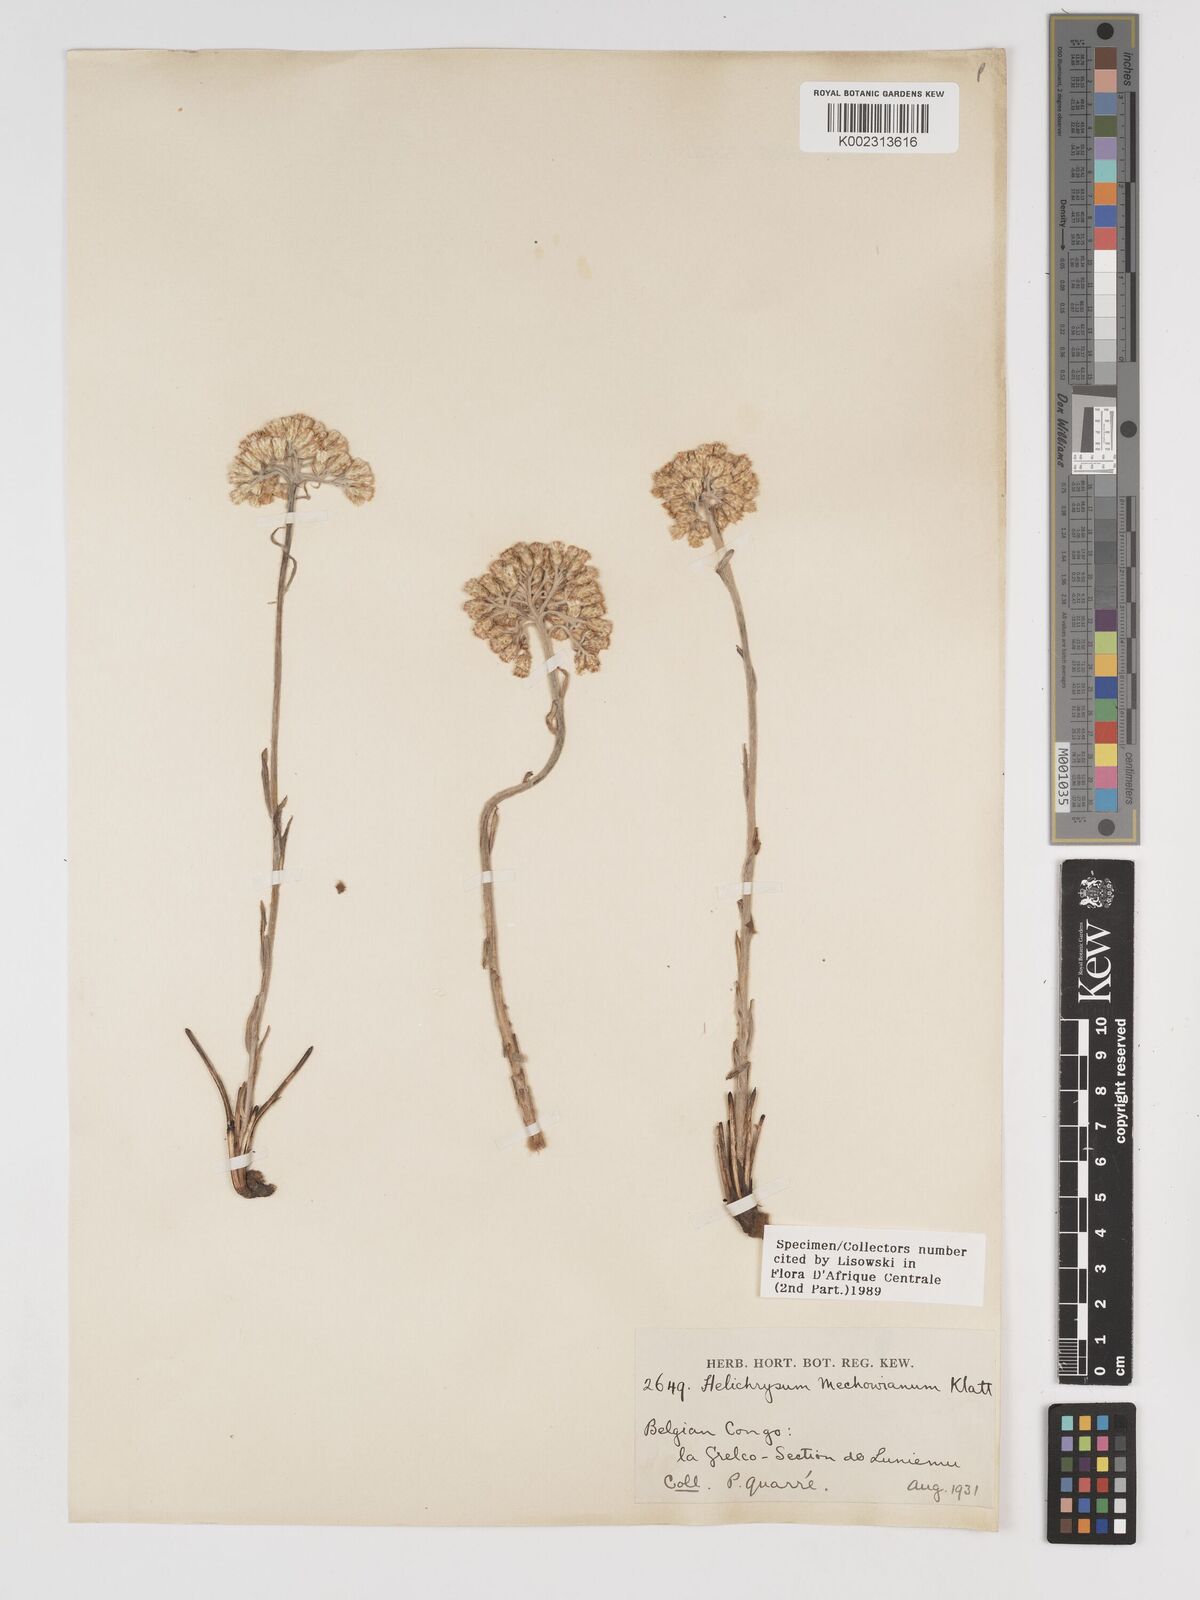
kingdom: Plantae
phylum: Tracheophyta
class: Magnoliopsida
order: Asterales
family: Asteraceae
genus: Helichrysum
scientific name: Helichrysum congolanum
